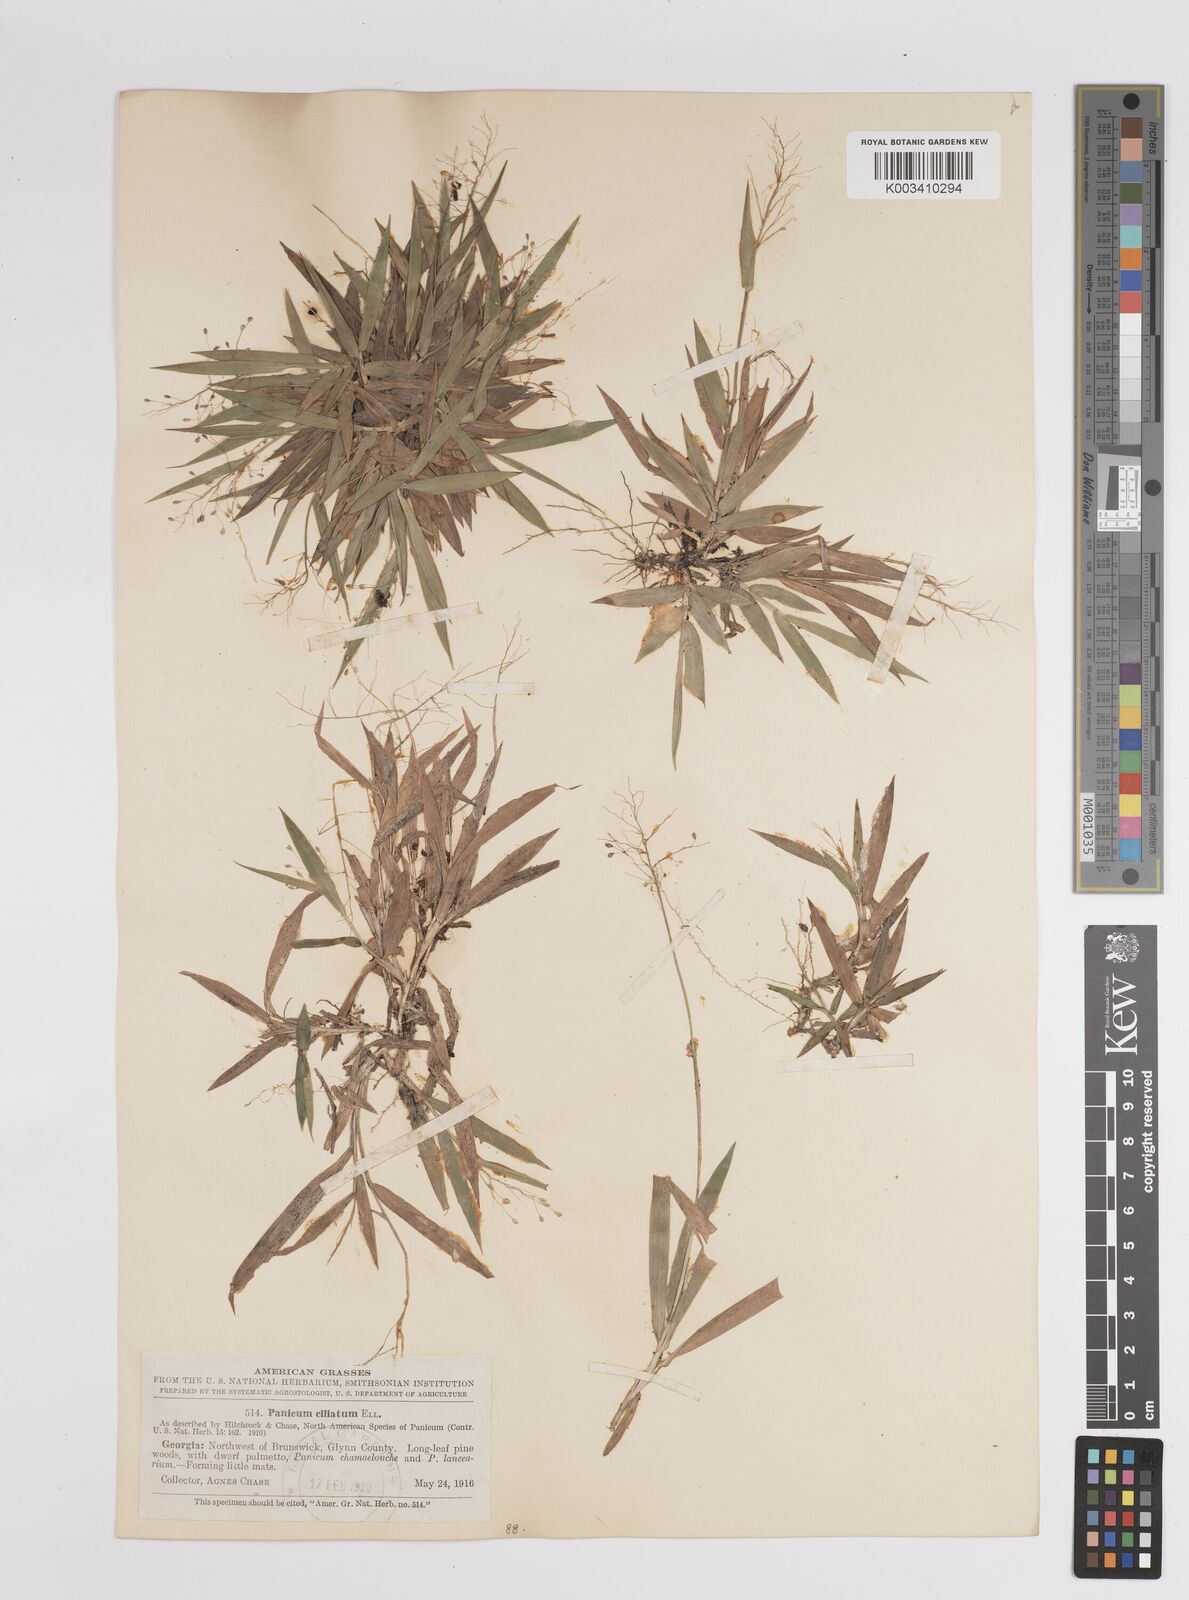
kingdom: Plantae
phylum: Tracheophyta
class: Liliopsida
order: Poales
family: Poaceae
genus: Dichanthelium
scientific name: Dichanthelium strigosum
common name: Cushion-tuft panic grass
